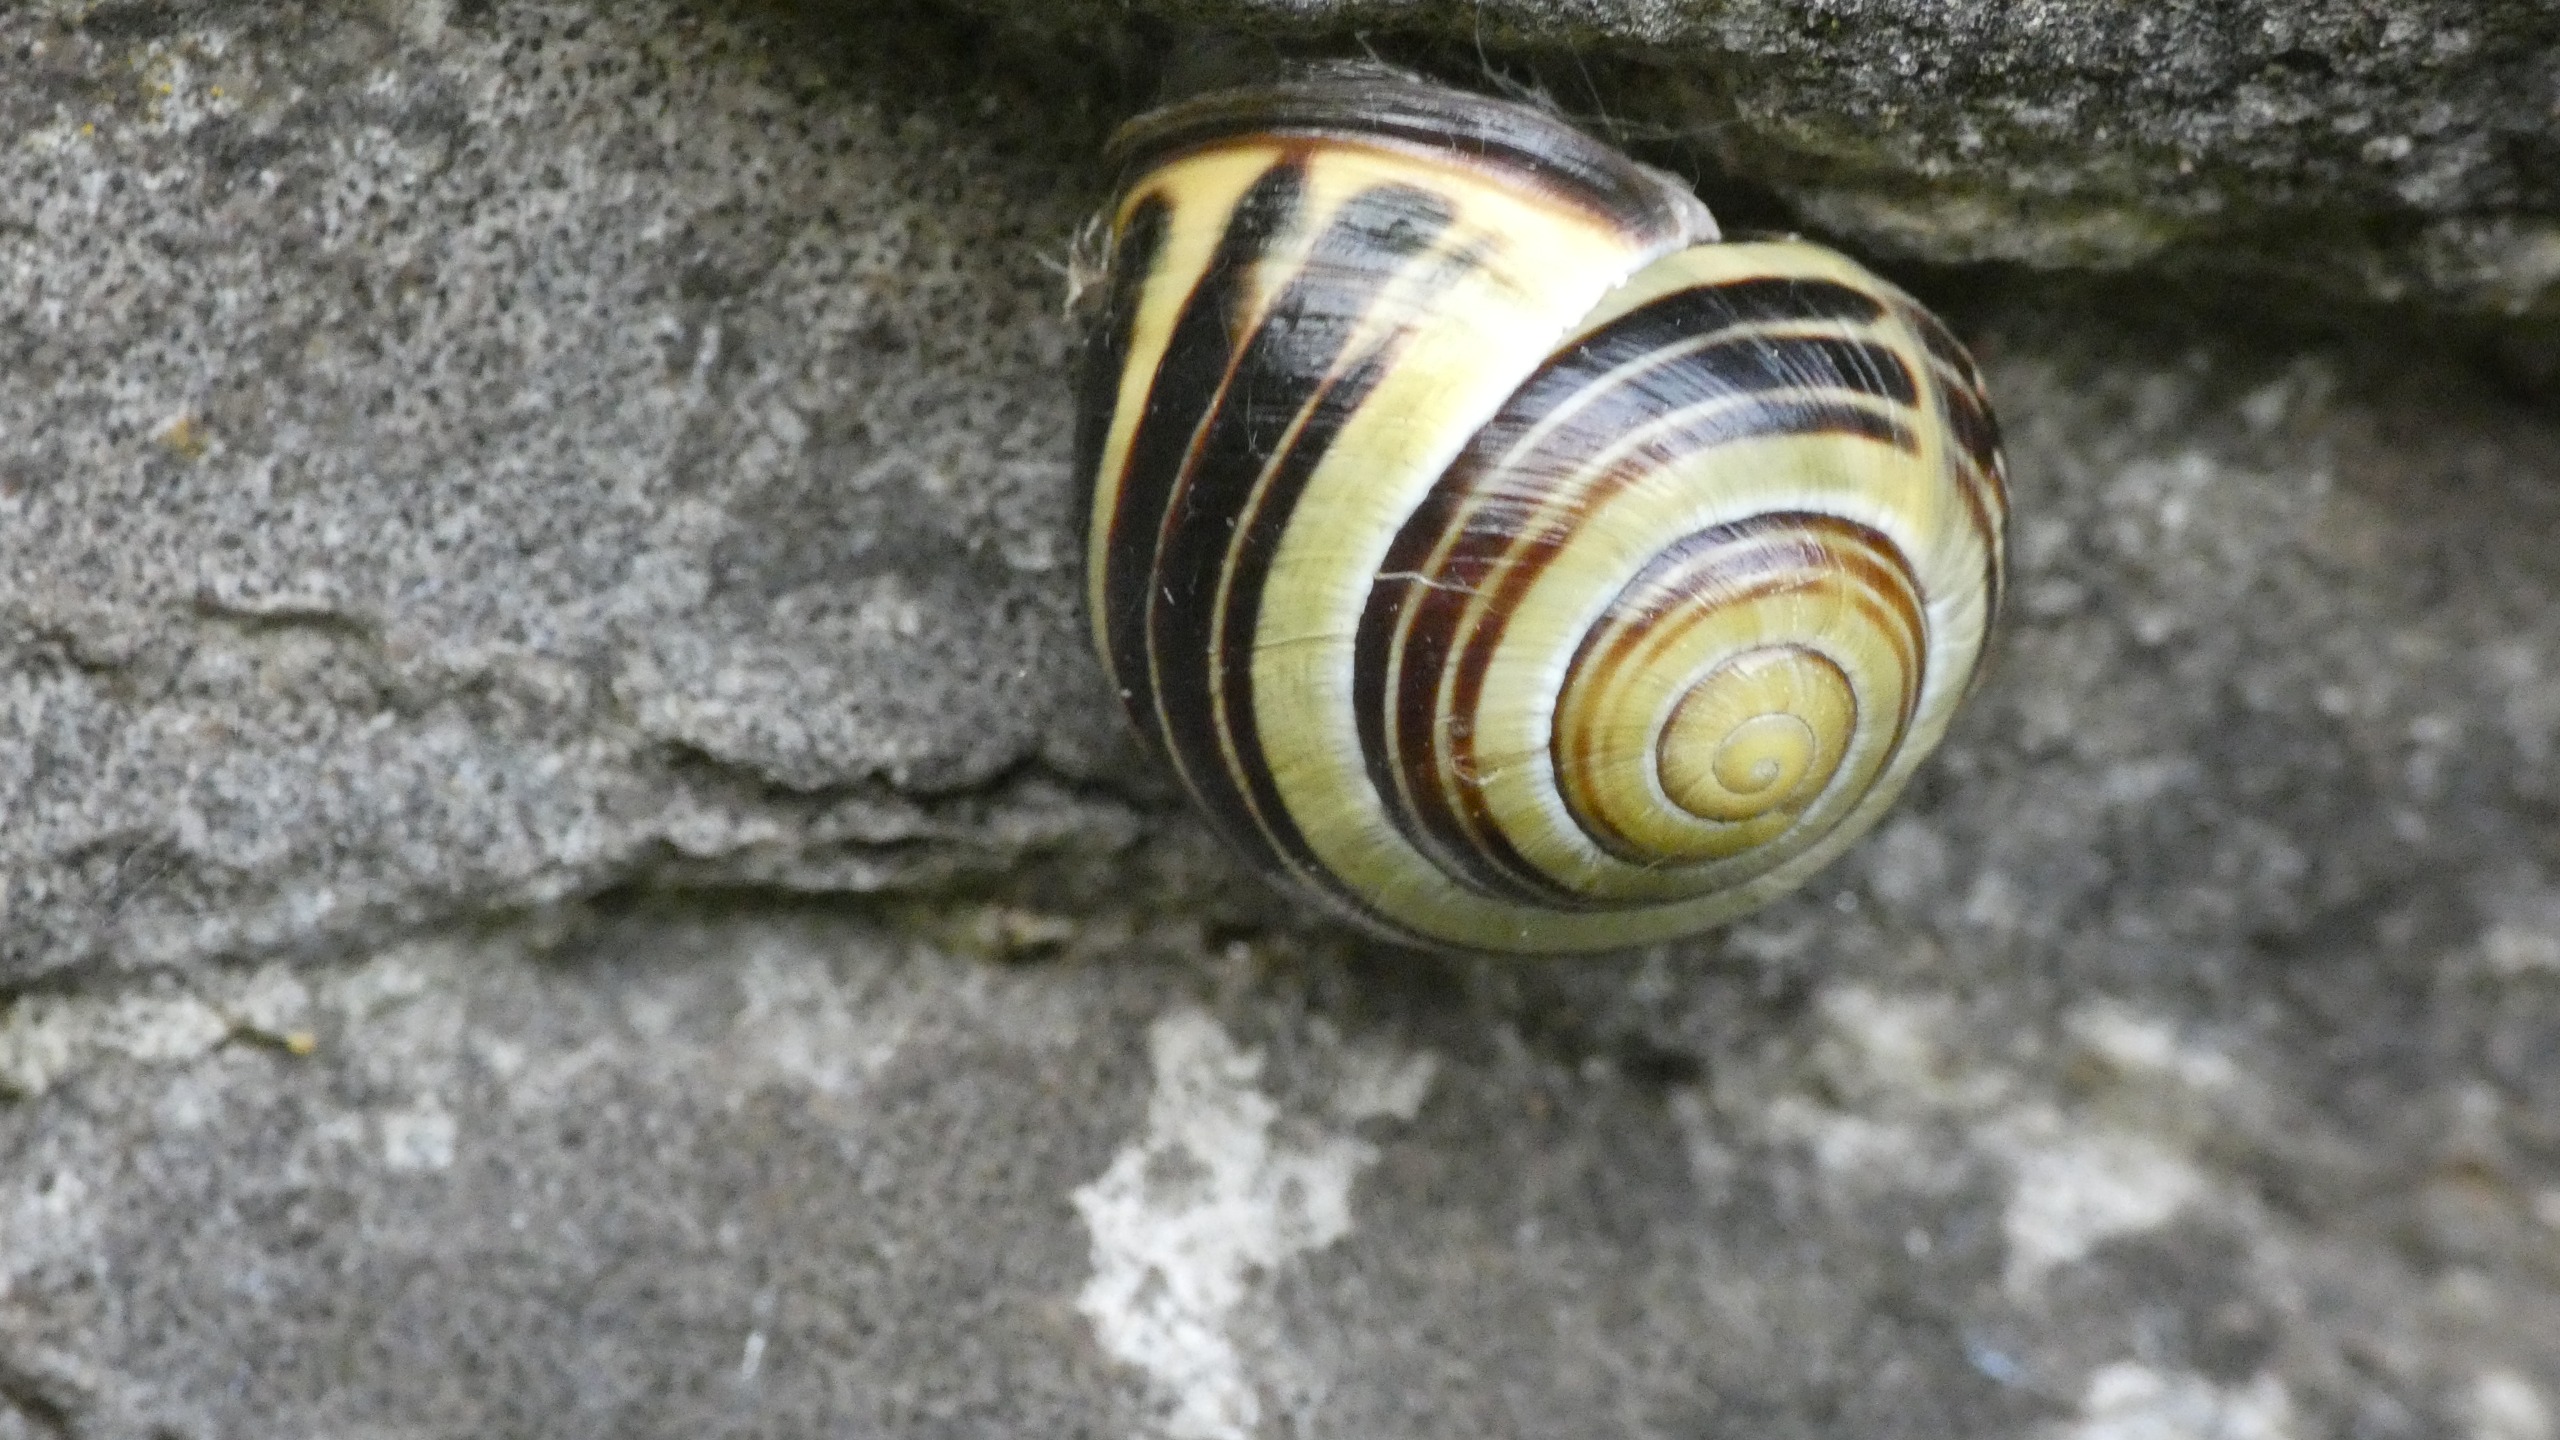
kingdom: Animalia
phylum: Mollusca
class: Gastropoda
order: Stylommatophora
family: Helicidae
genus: Cepaea
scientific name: Cepaea nemoralis
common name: Lundsnegl
